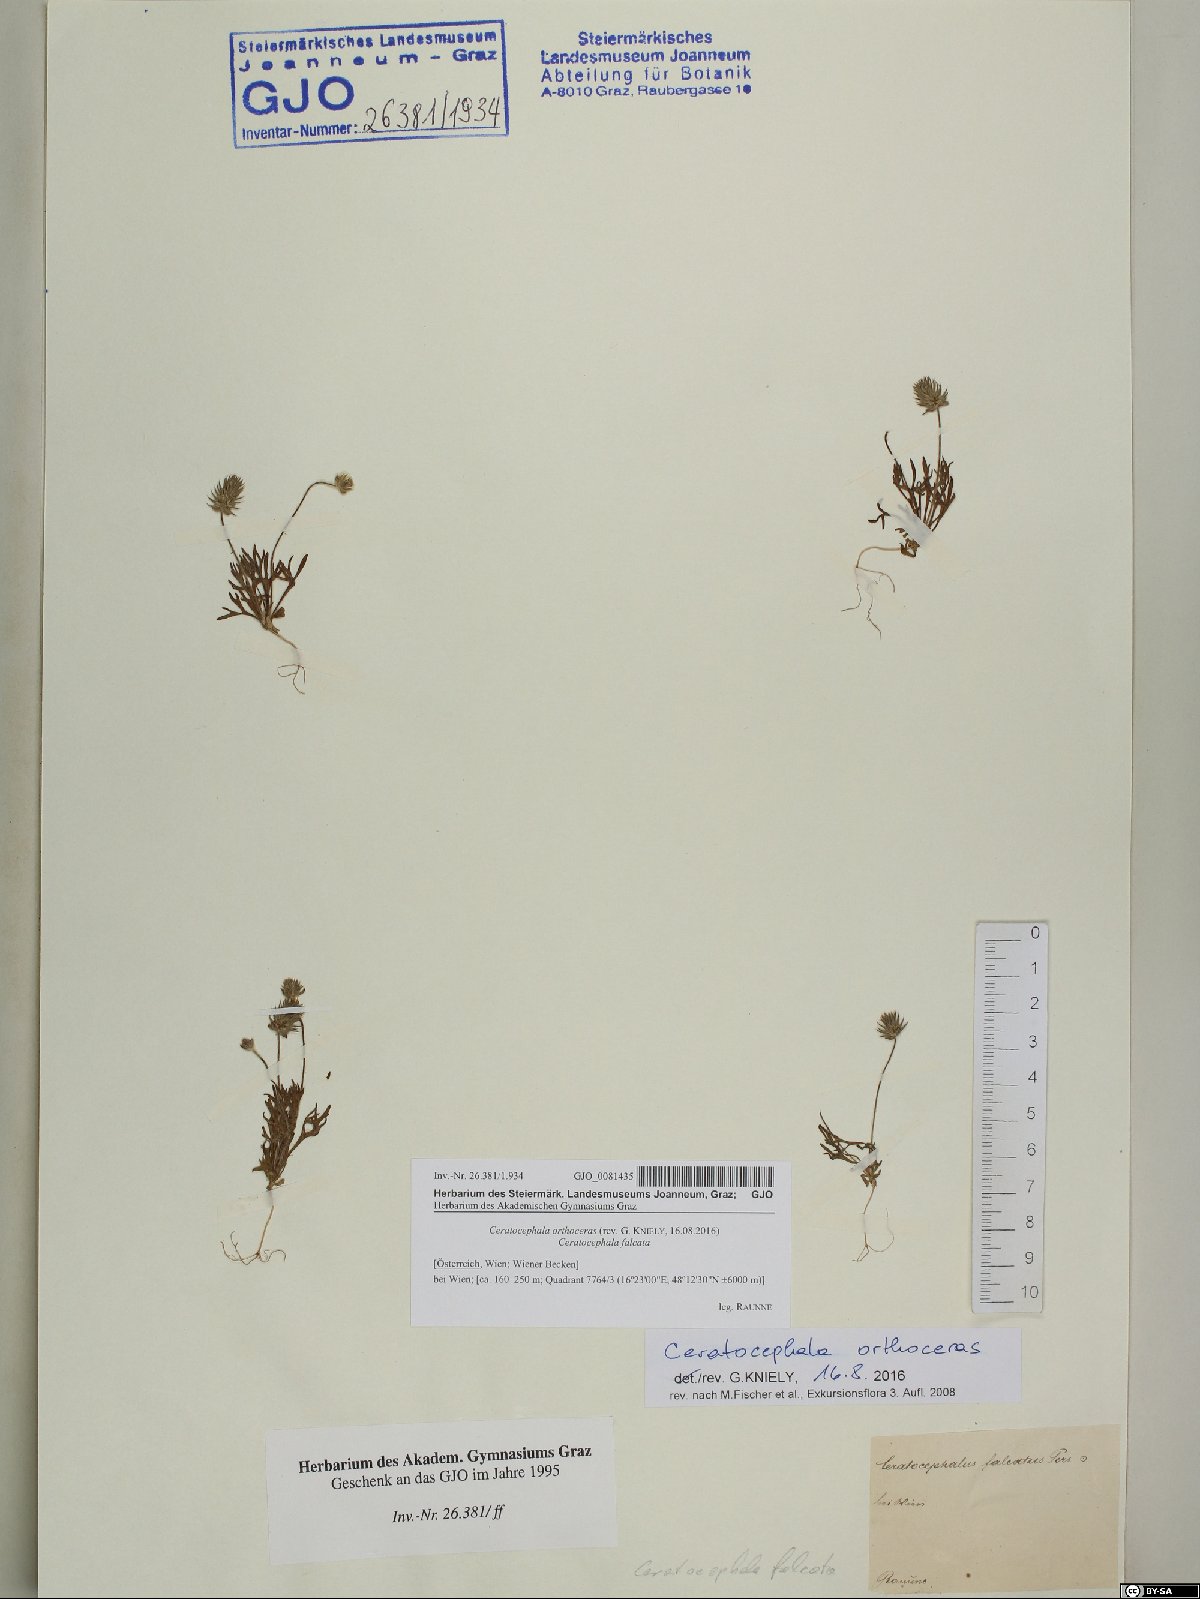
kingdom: Plantae
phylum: Tracheophyta
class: Magnoliopsida
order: Ranunculales
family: Ranunculaceae
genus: Ceratocephala
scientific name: Ceratocephala orthoceras
